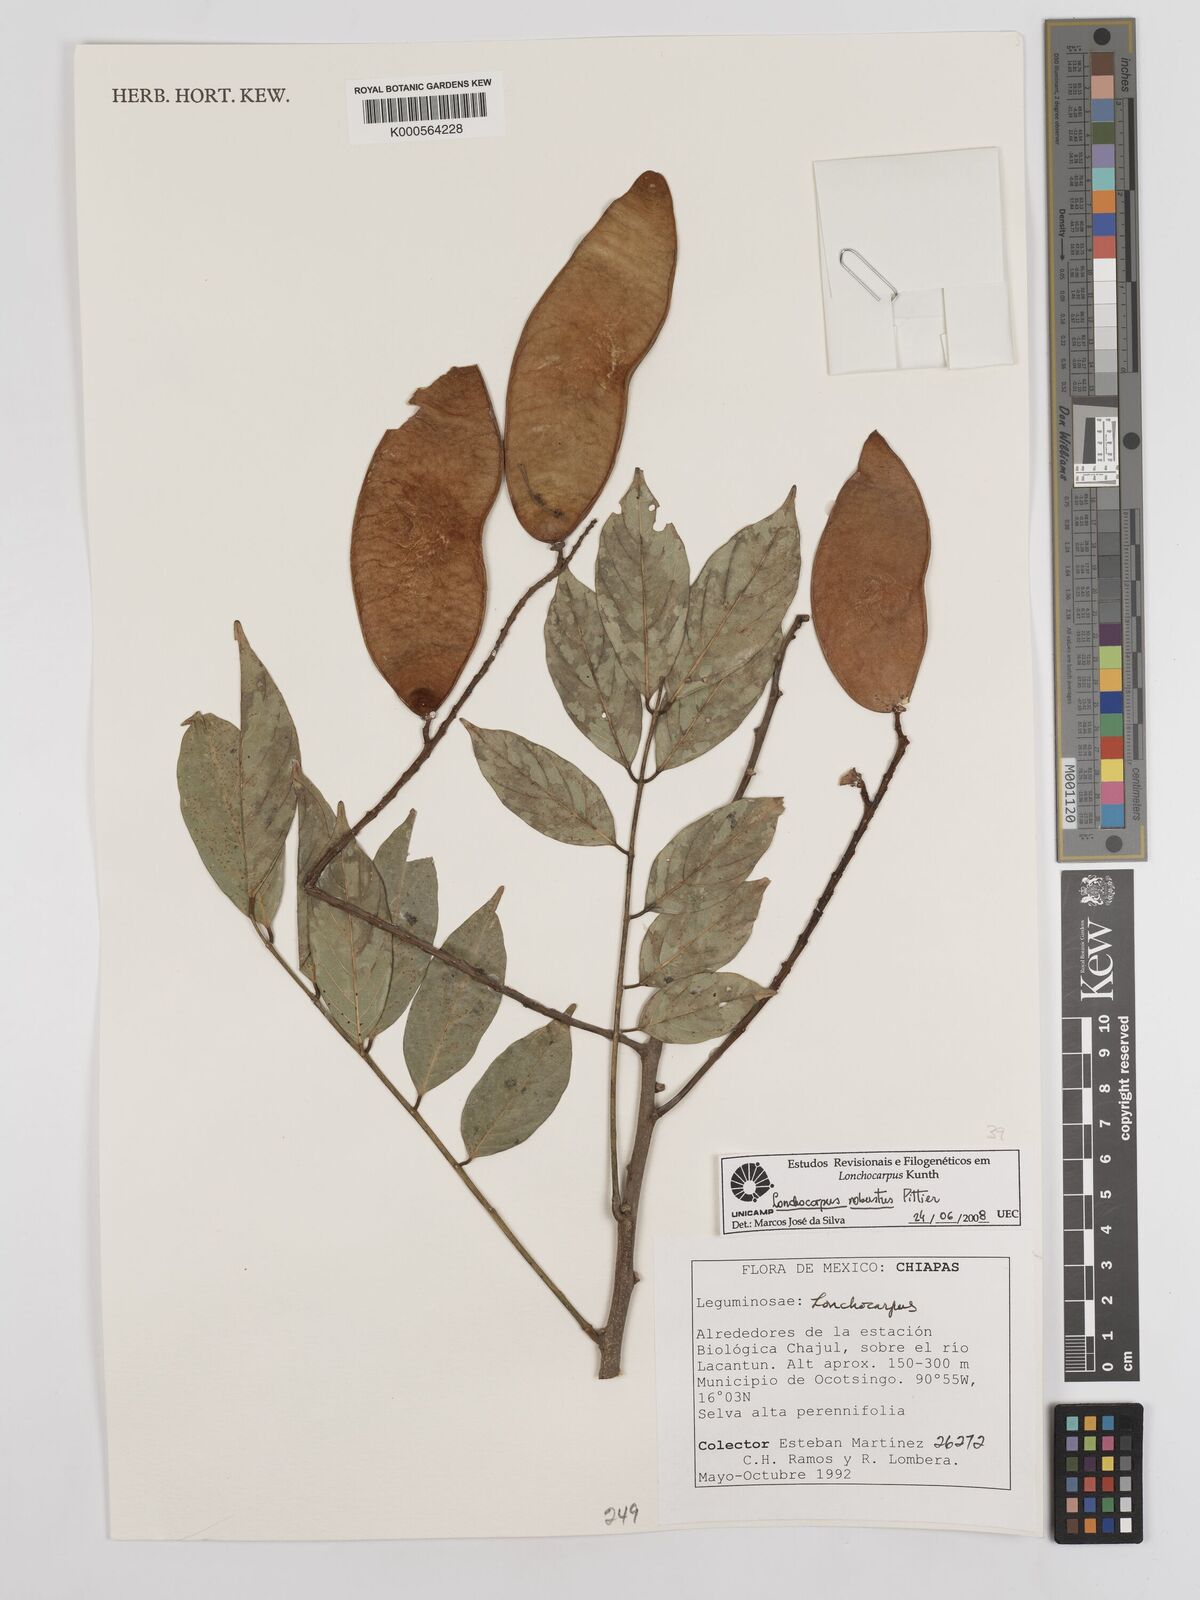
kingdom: Plantae
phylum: Tracheophyta
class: Magnoliopsida
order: Fabales
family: Fabaceae
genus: Lonchocarpus
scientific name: Lonchocarpus robustus
